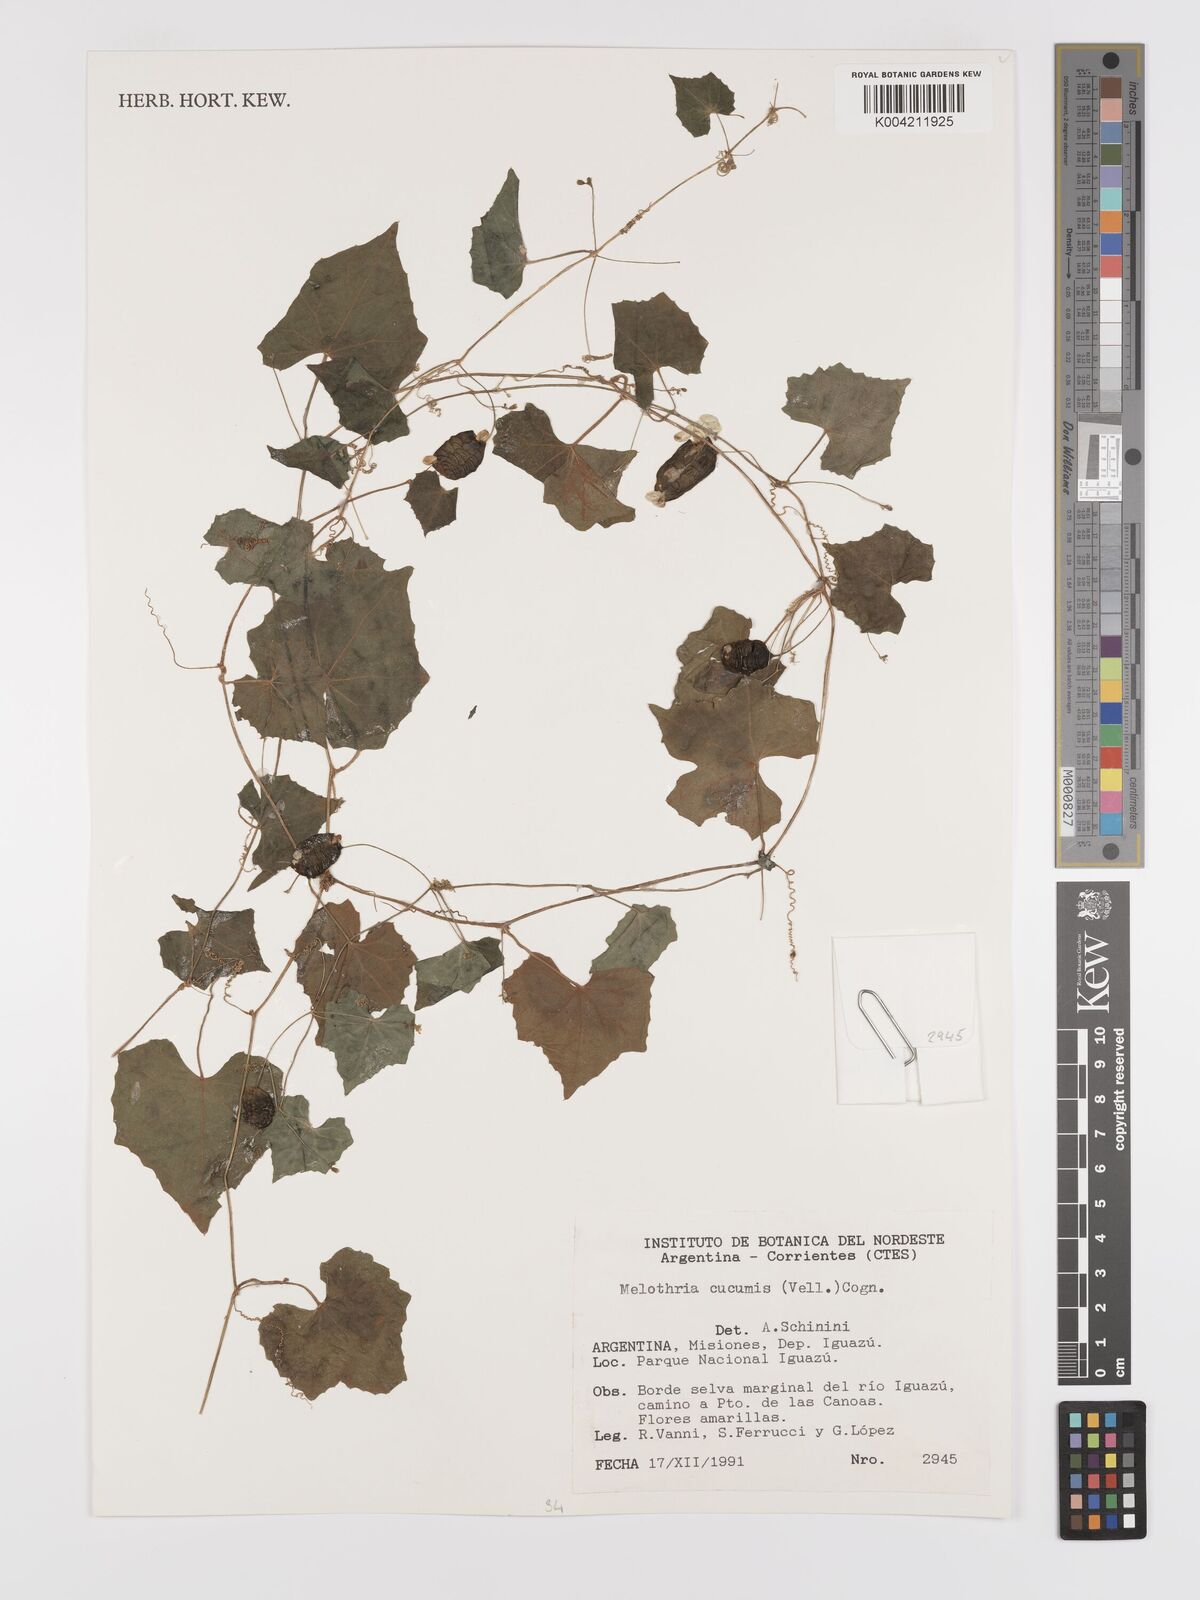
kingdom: Plantae
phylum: Tracheophyta
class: Magnoliopsida
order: Cucurbitales
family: Cucurbitaceae
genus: Melothria
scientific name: Melothria cucumis
